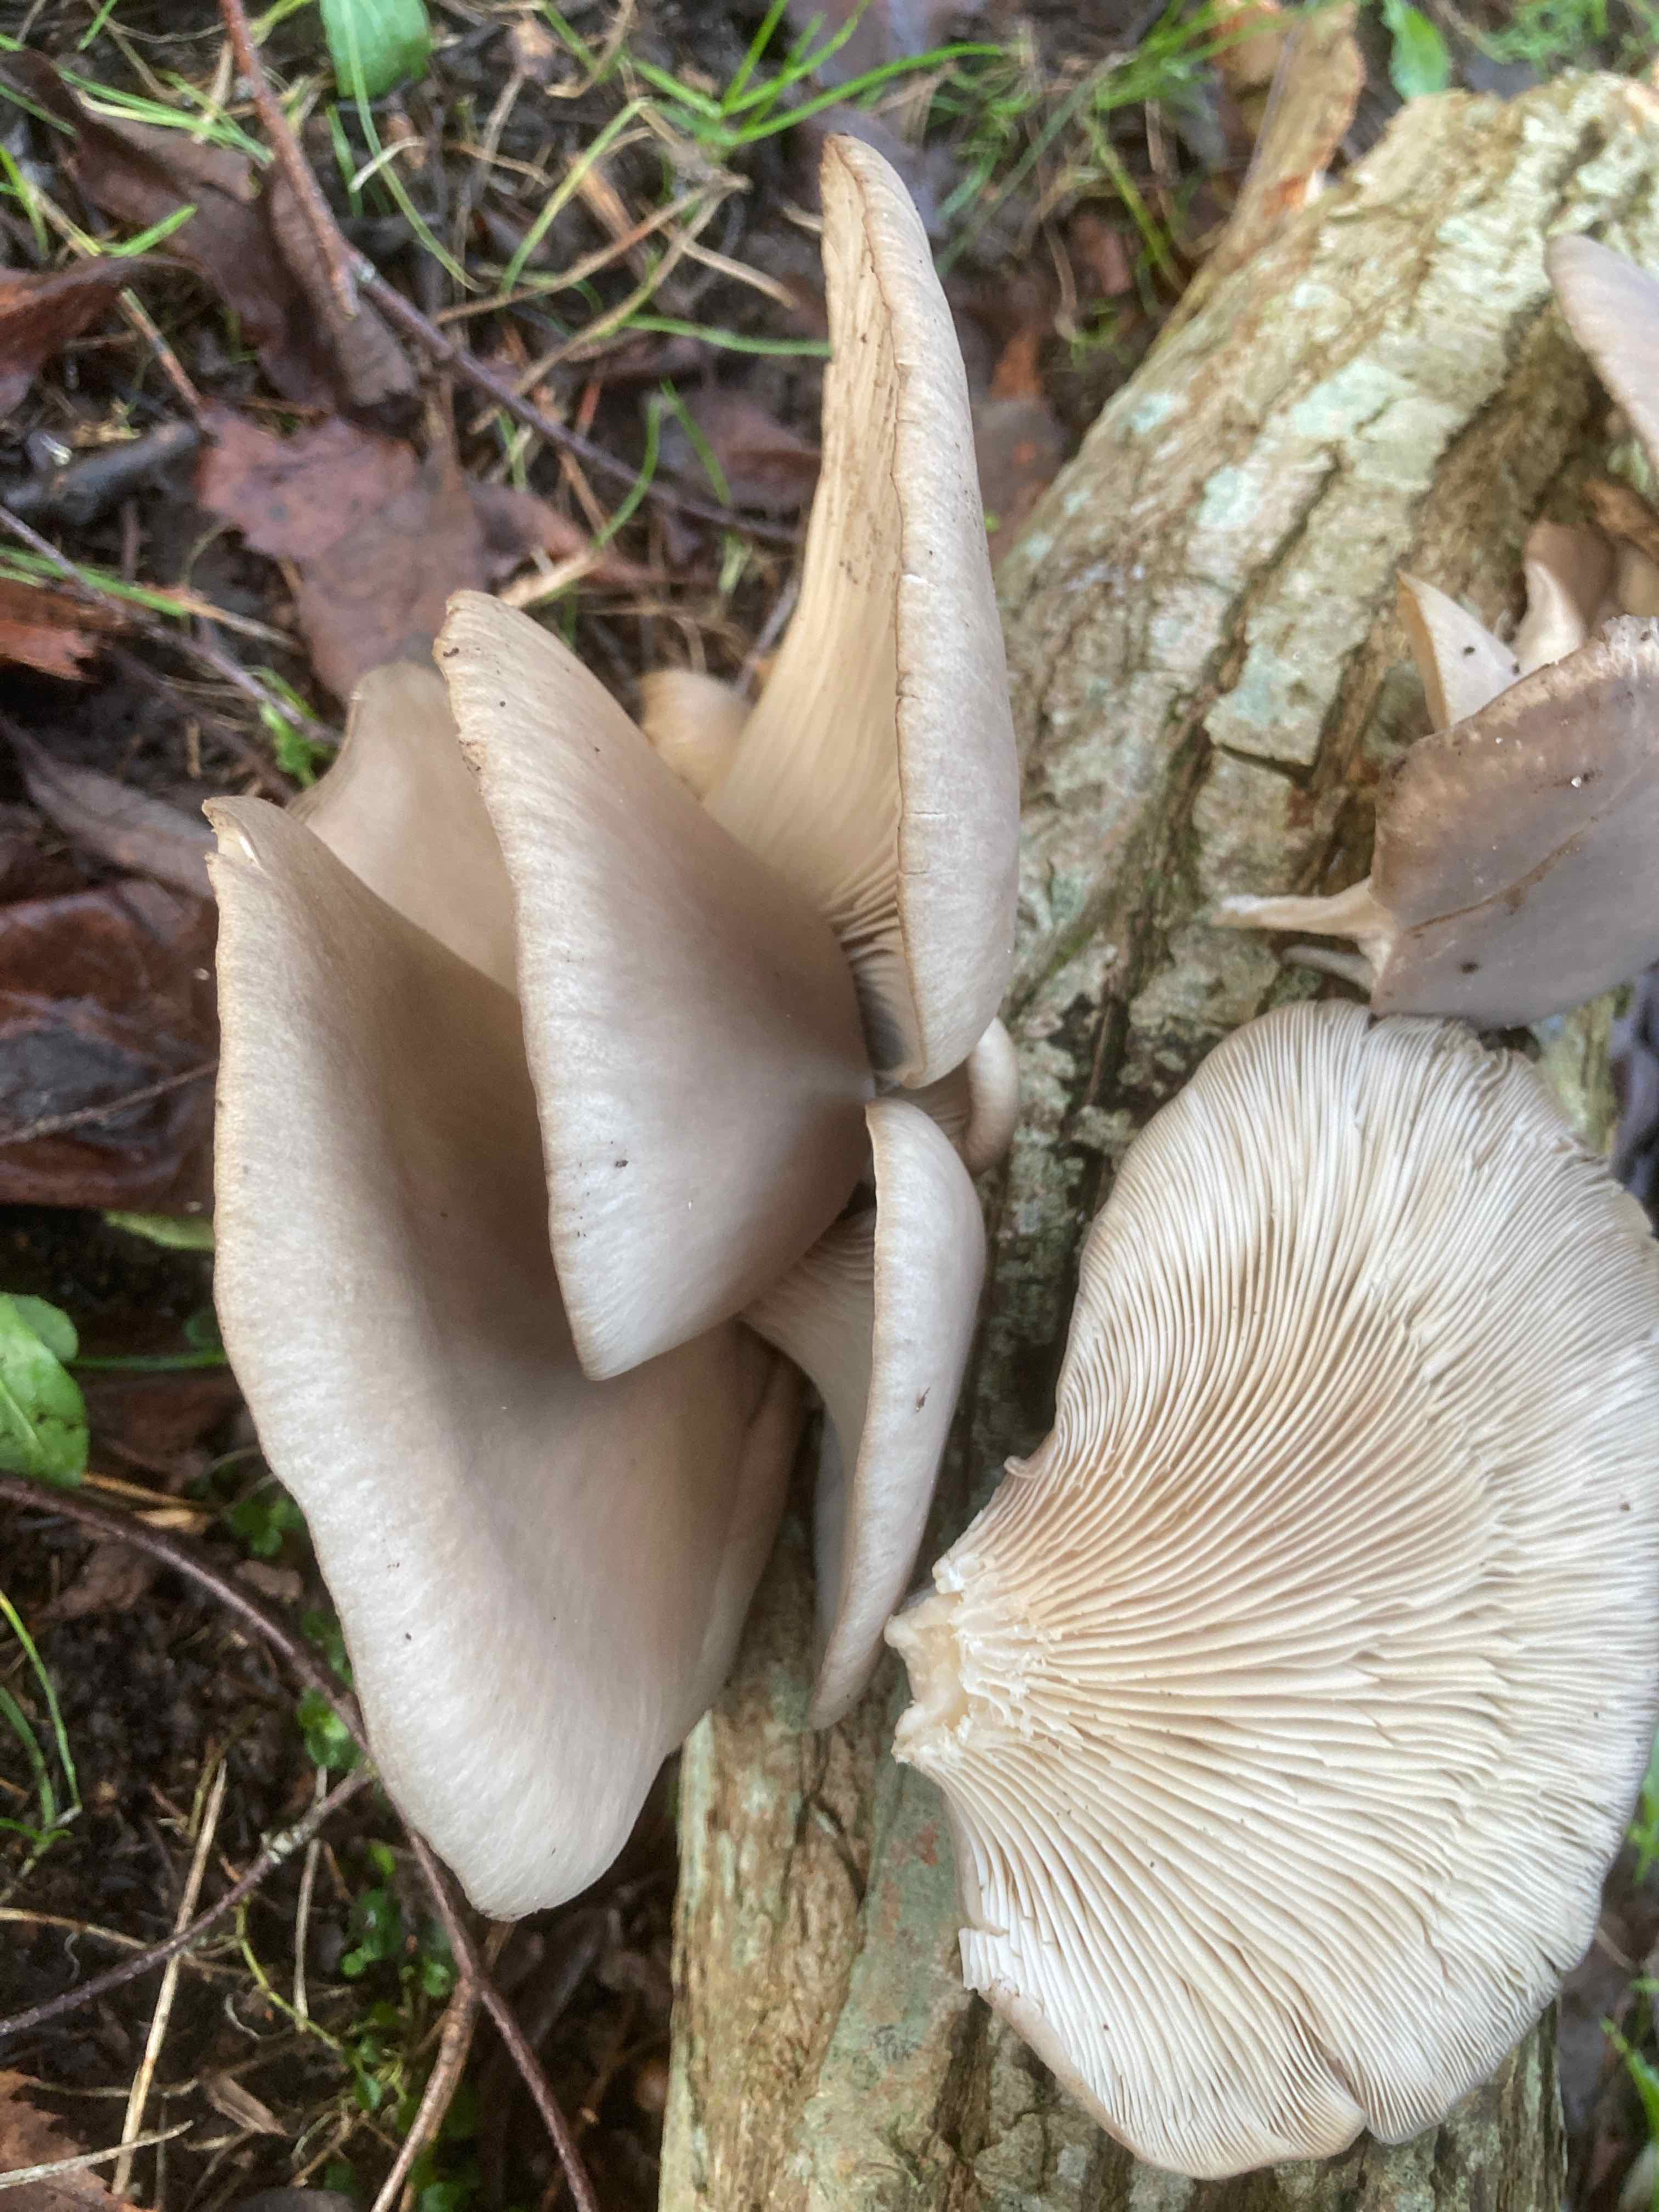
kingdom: Fungi
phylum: Basidiomycota
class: Agaricomycetes
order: Agaricales
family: Pleurotaceae
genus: Pleurotus
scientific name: Pleurotus ostreatus
